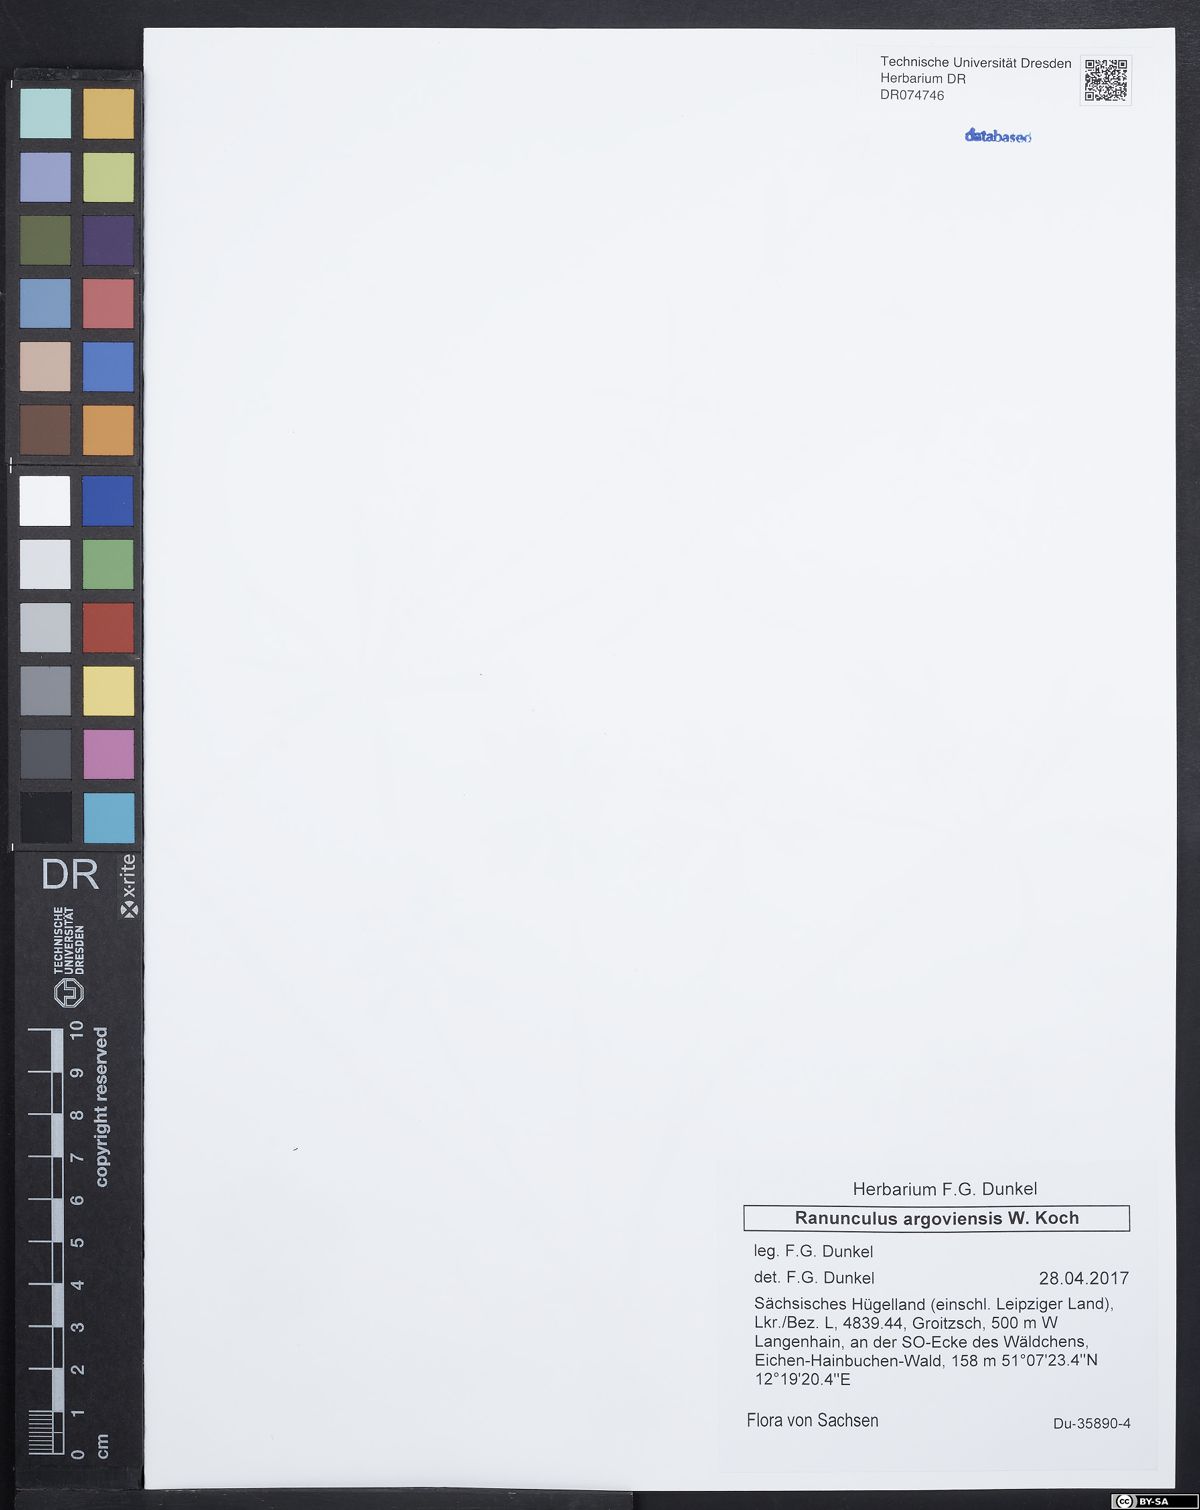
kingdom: Plantae
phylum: Tracheophyta
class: Magnoliopsida
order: Ranunculales
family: Ranunculaceae
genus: Ranunculus
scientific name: Ranunculus argoviensis
